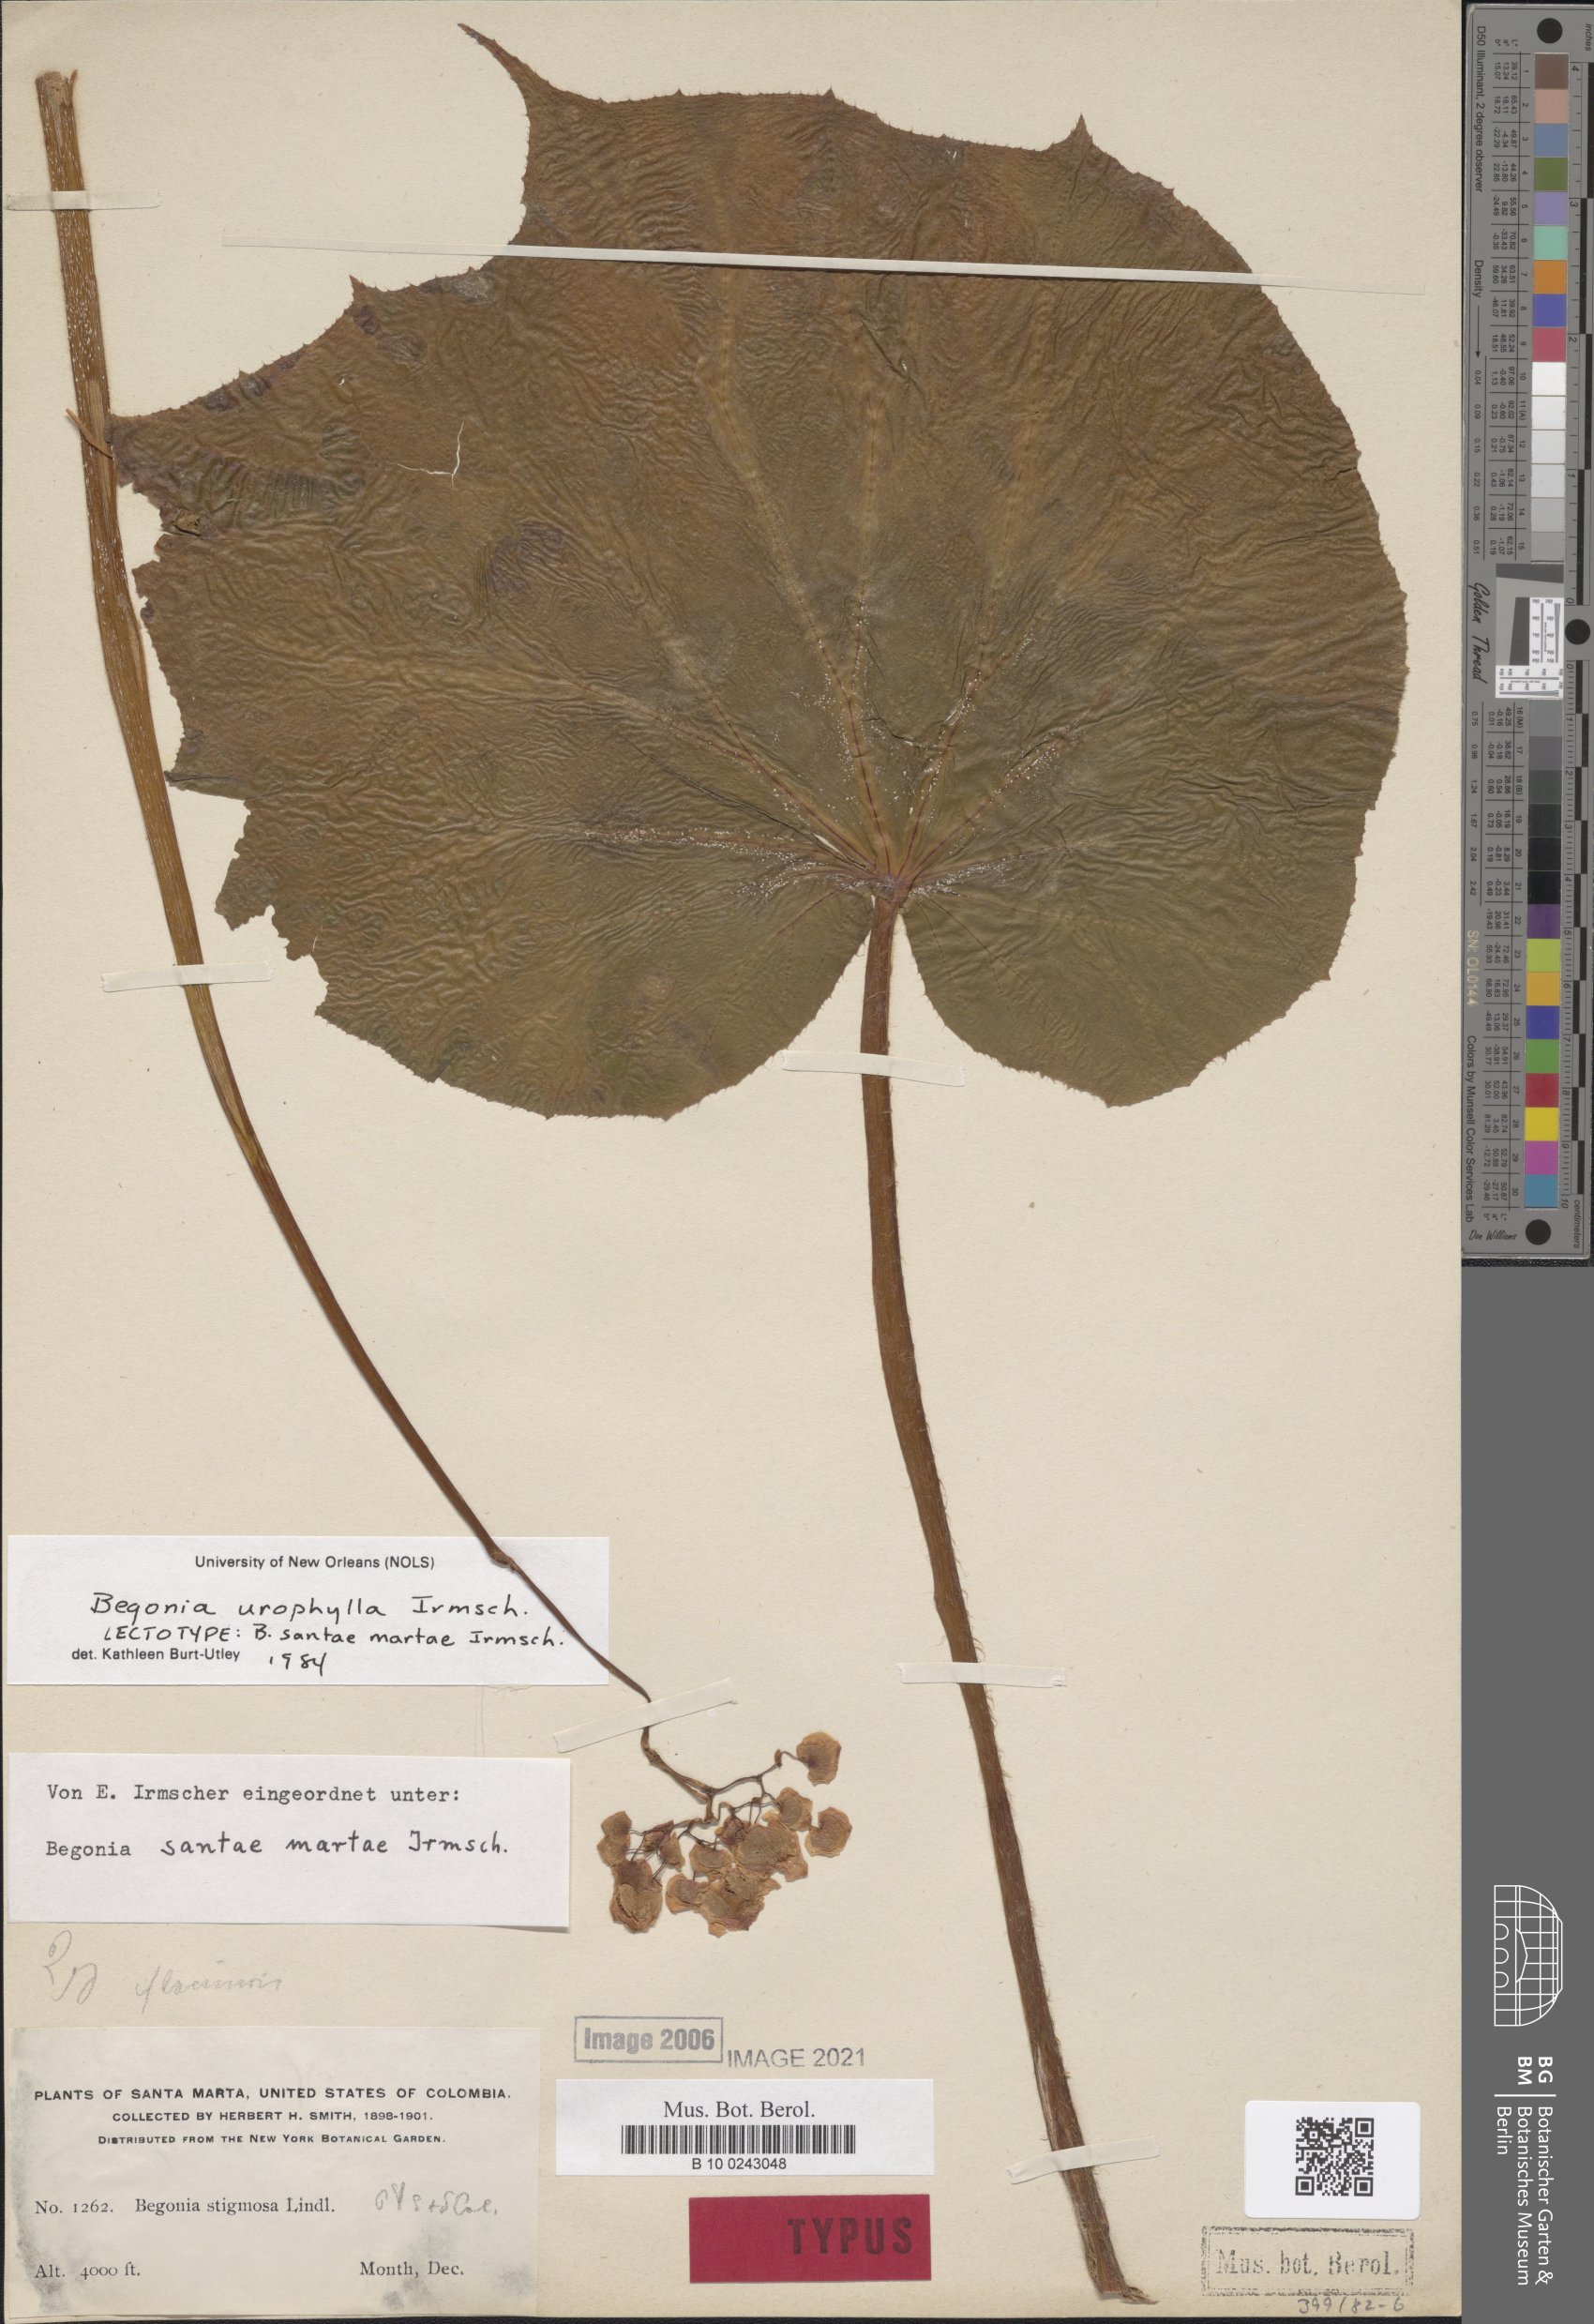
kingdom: Plantae
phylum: Tracheophyta
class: Magnoliopsida
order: Cucurbitales
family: Begoniaceae
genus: Begonia
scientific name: Begonia urophylla
